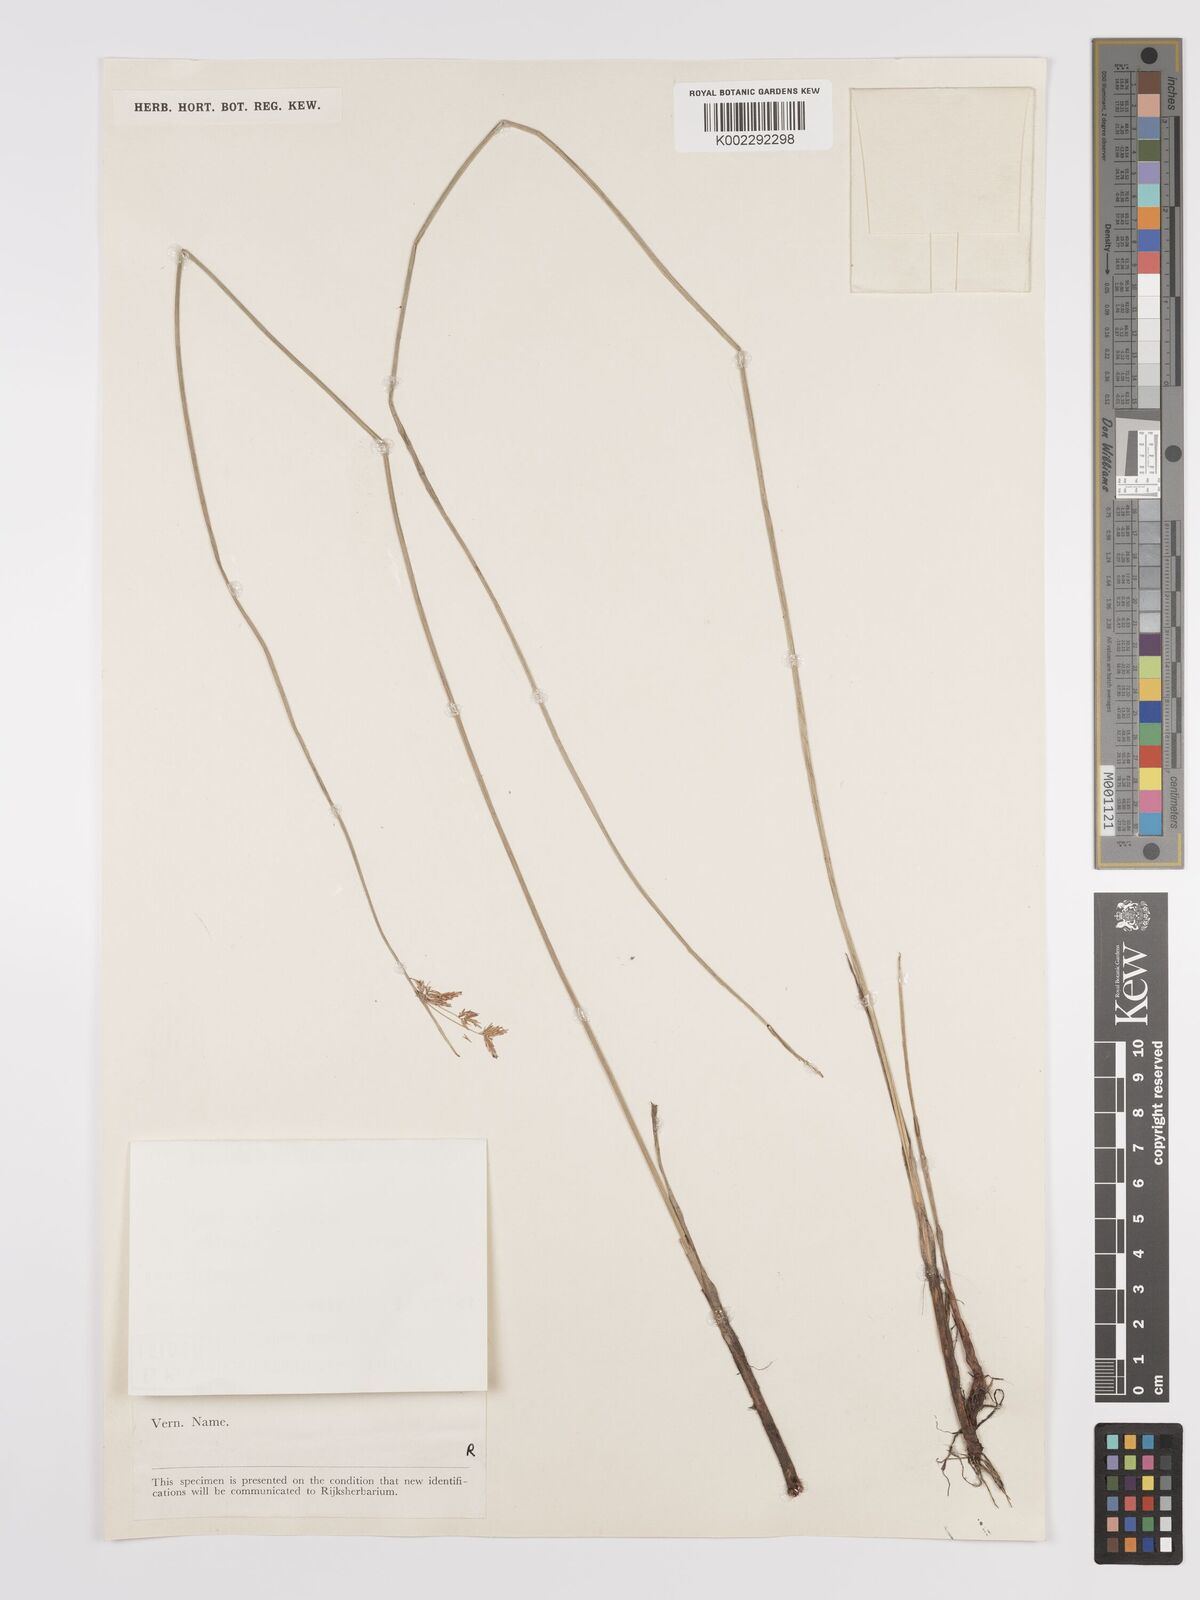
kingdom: Plantae
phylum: Tracheophyta
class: Liliopsida
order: Poales
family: Cyperaceae
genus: Cyperus
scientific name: Cyperus scariosus
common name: Cypriol
